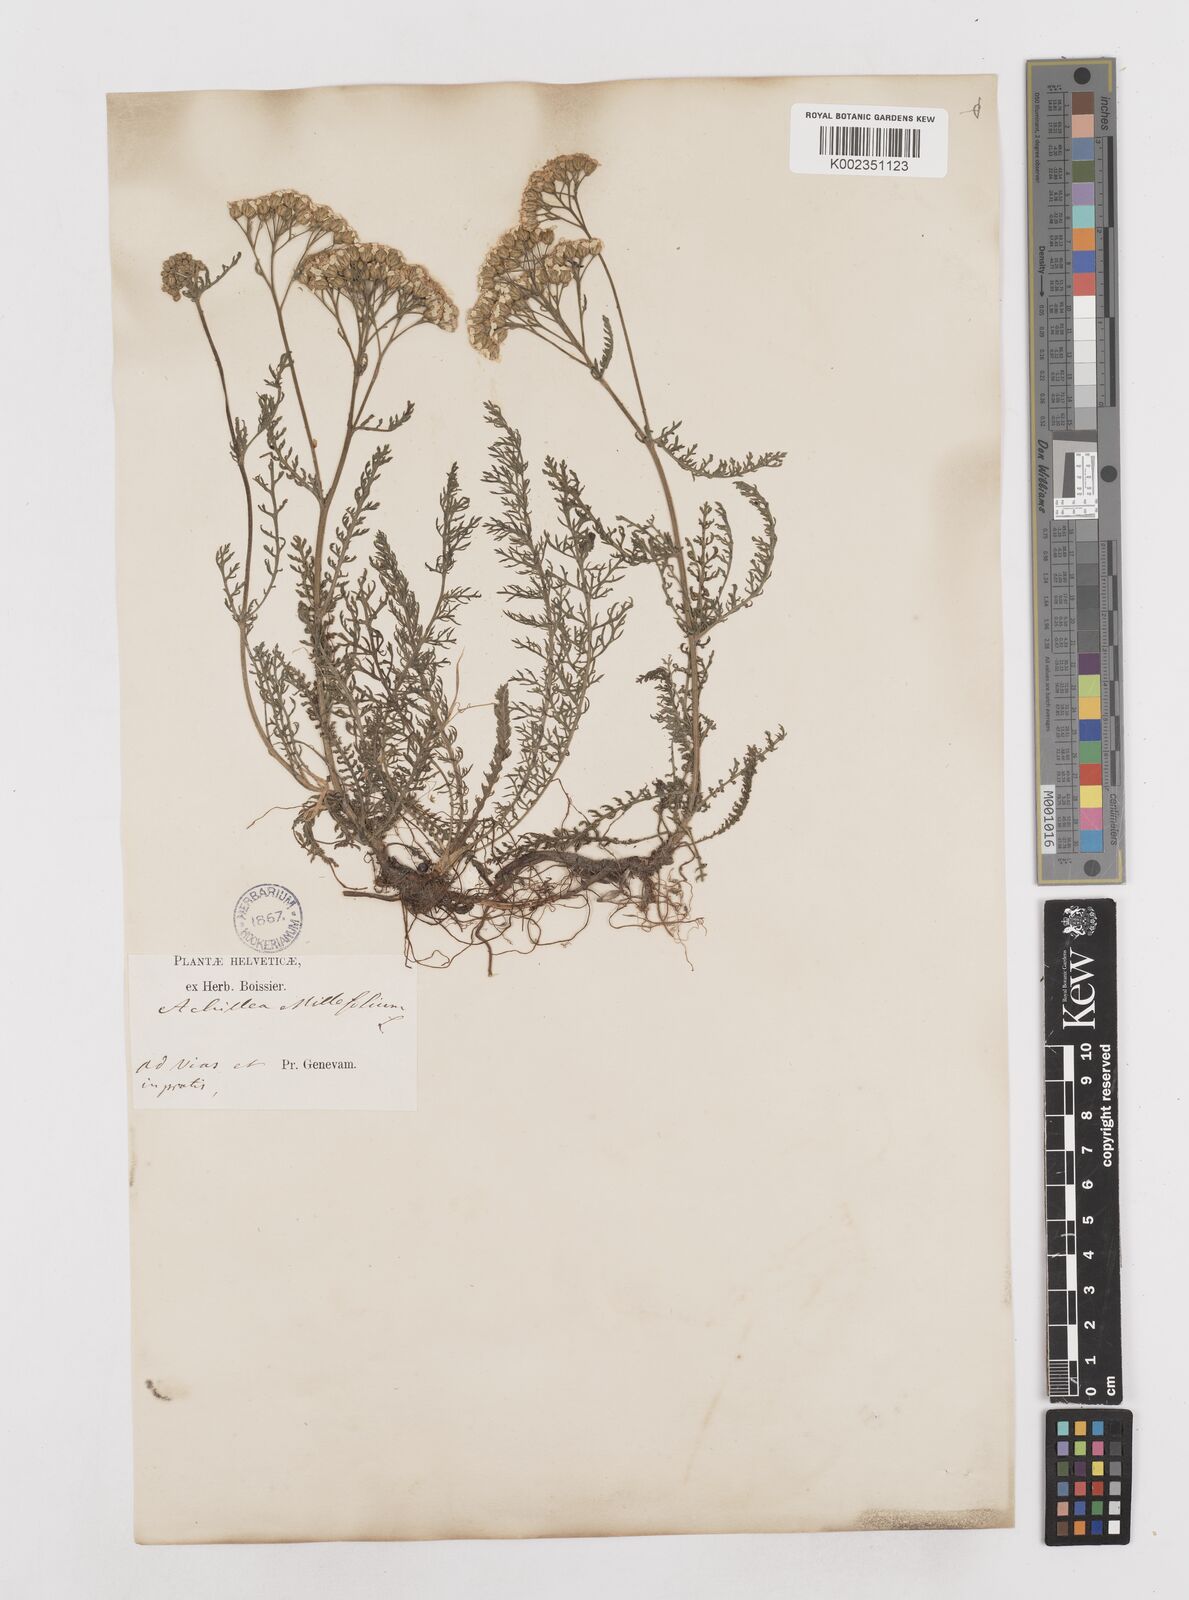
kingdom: Plantae
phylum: Tracheophyta
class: Magnoliopsida
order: Asterales
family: Asteraceae
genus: Achillea
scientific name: Achillea millefolium
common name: Yarrow
